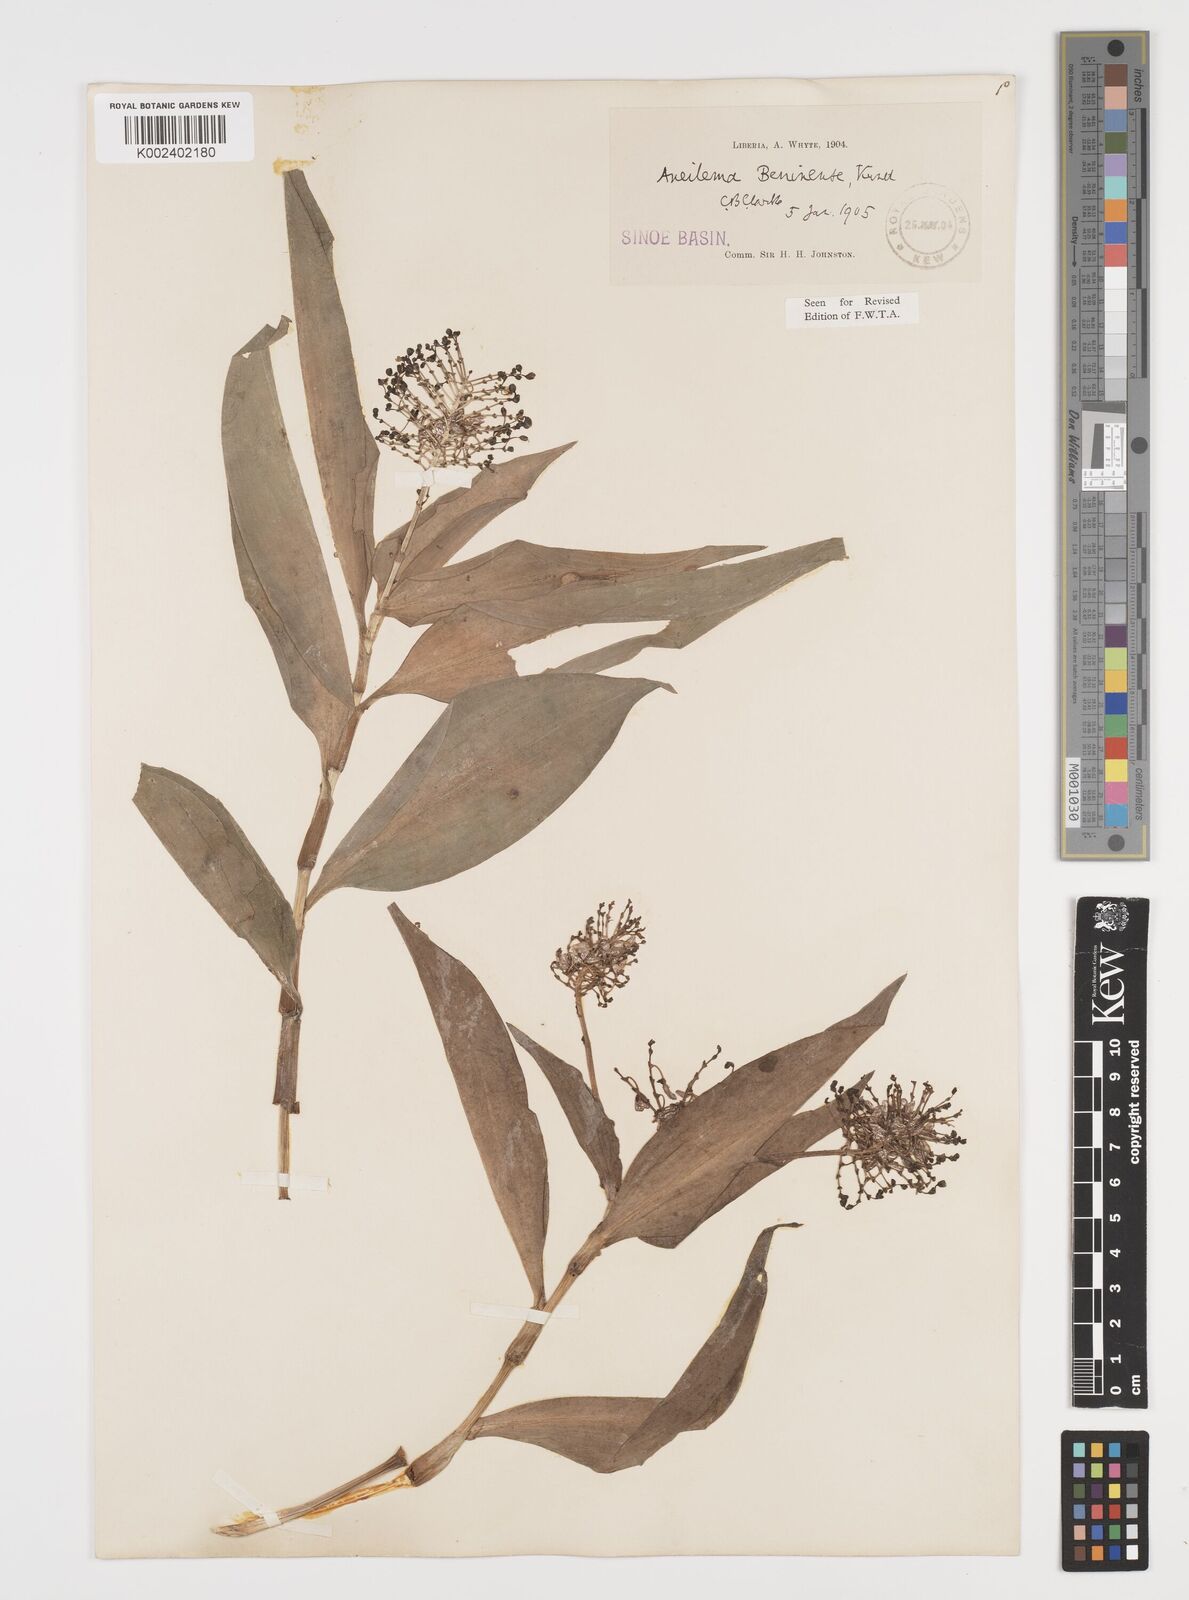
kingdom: Plantae
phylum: Tracheophyta
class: Liliopsida
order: Commelinales
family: Commelinaceae
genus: Aneilema
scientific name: Aneilema beniniense
